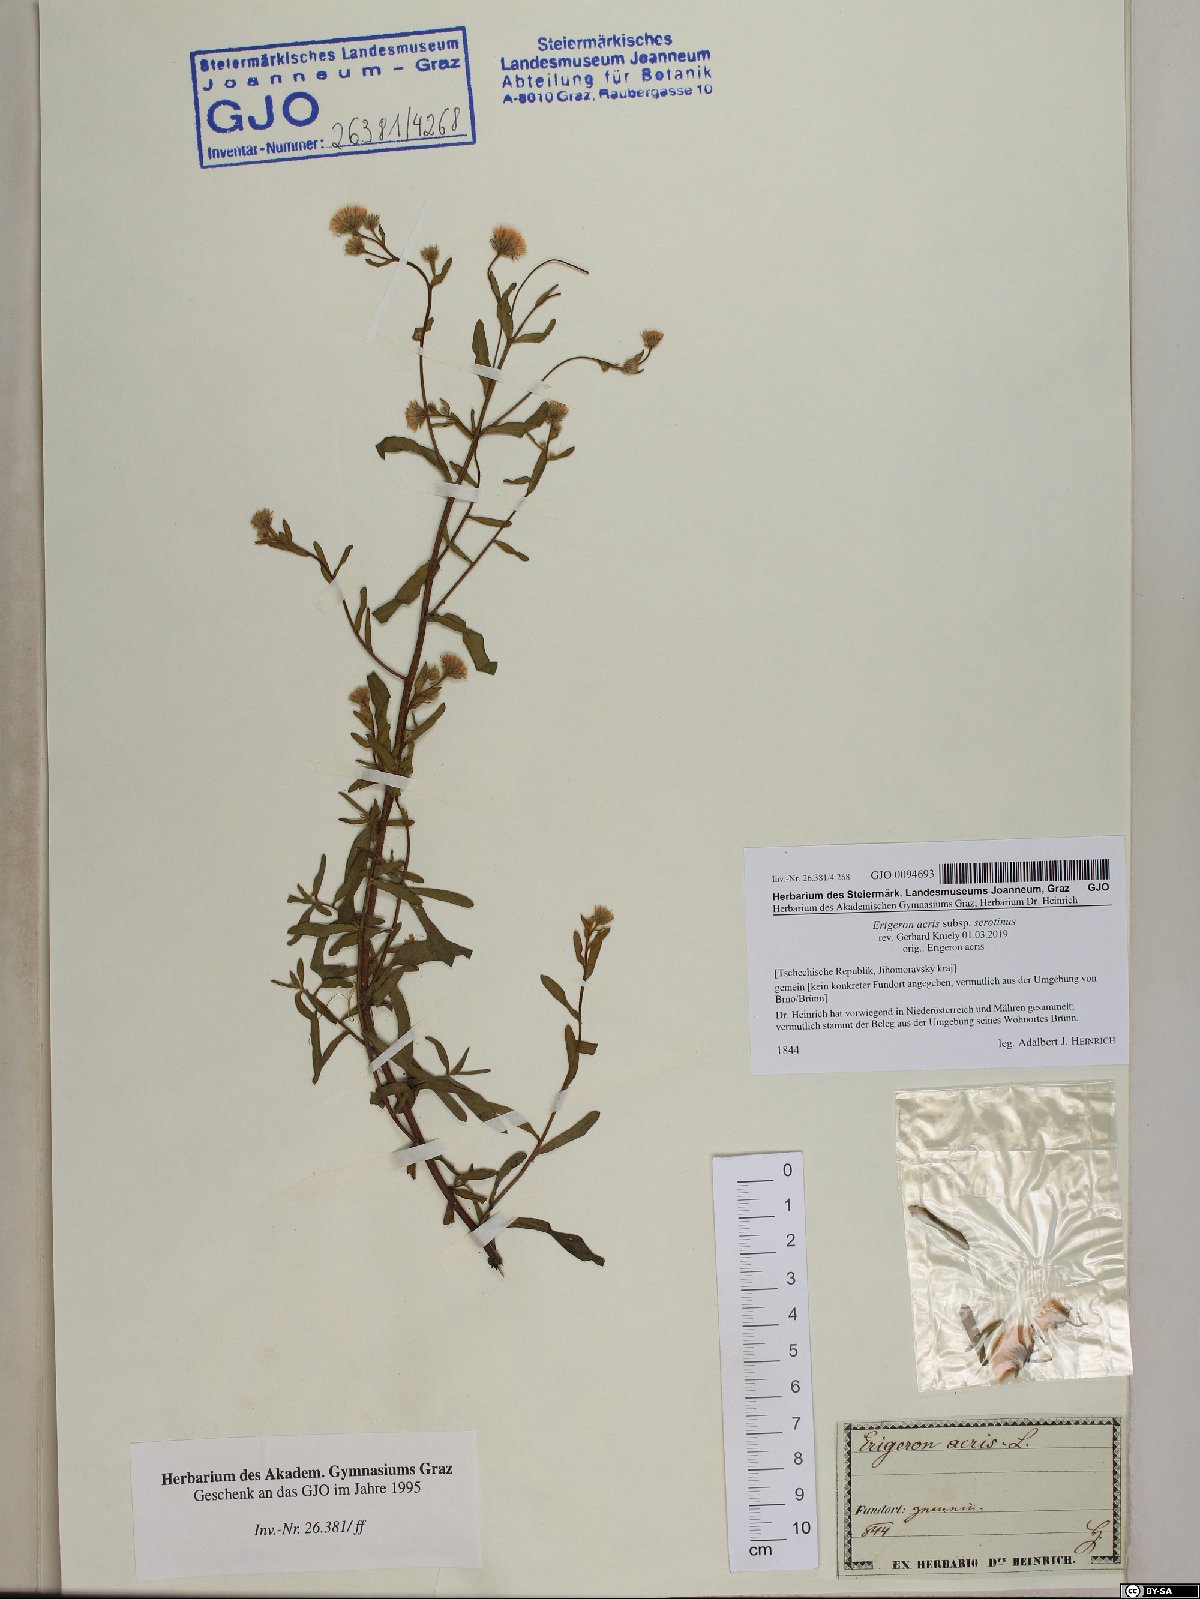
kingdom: Plantae
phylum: Tracheophyta
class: Magnoliopsida
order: Asterales
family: Asteraceae
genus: Erigeron
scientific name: Erigeron muralis
